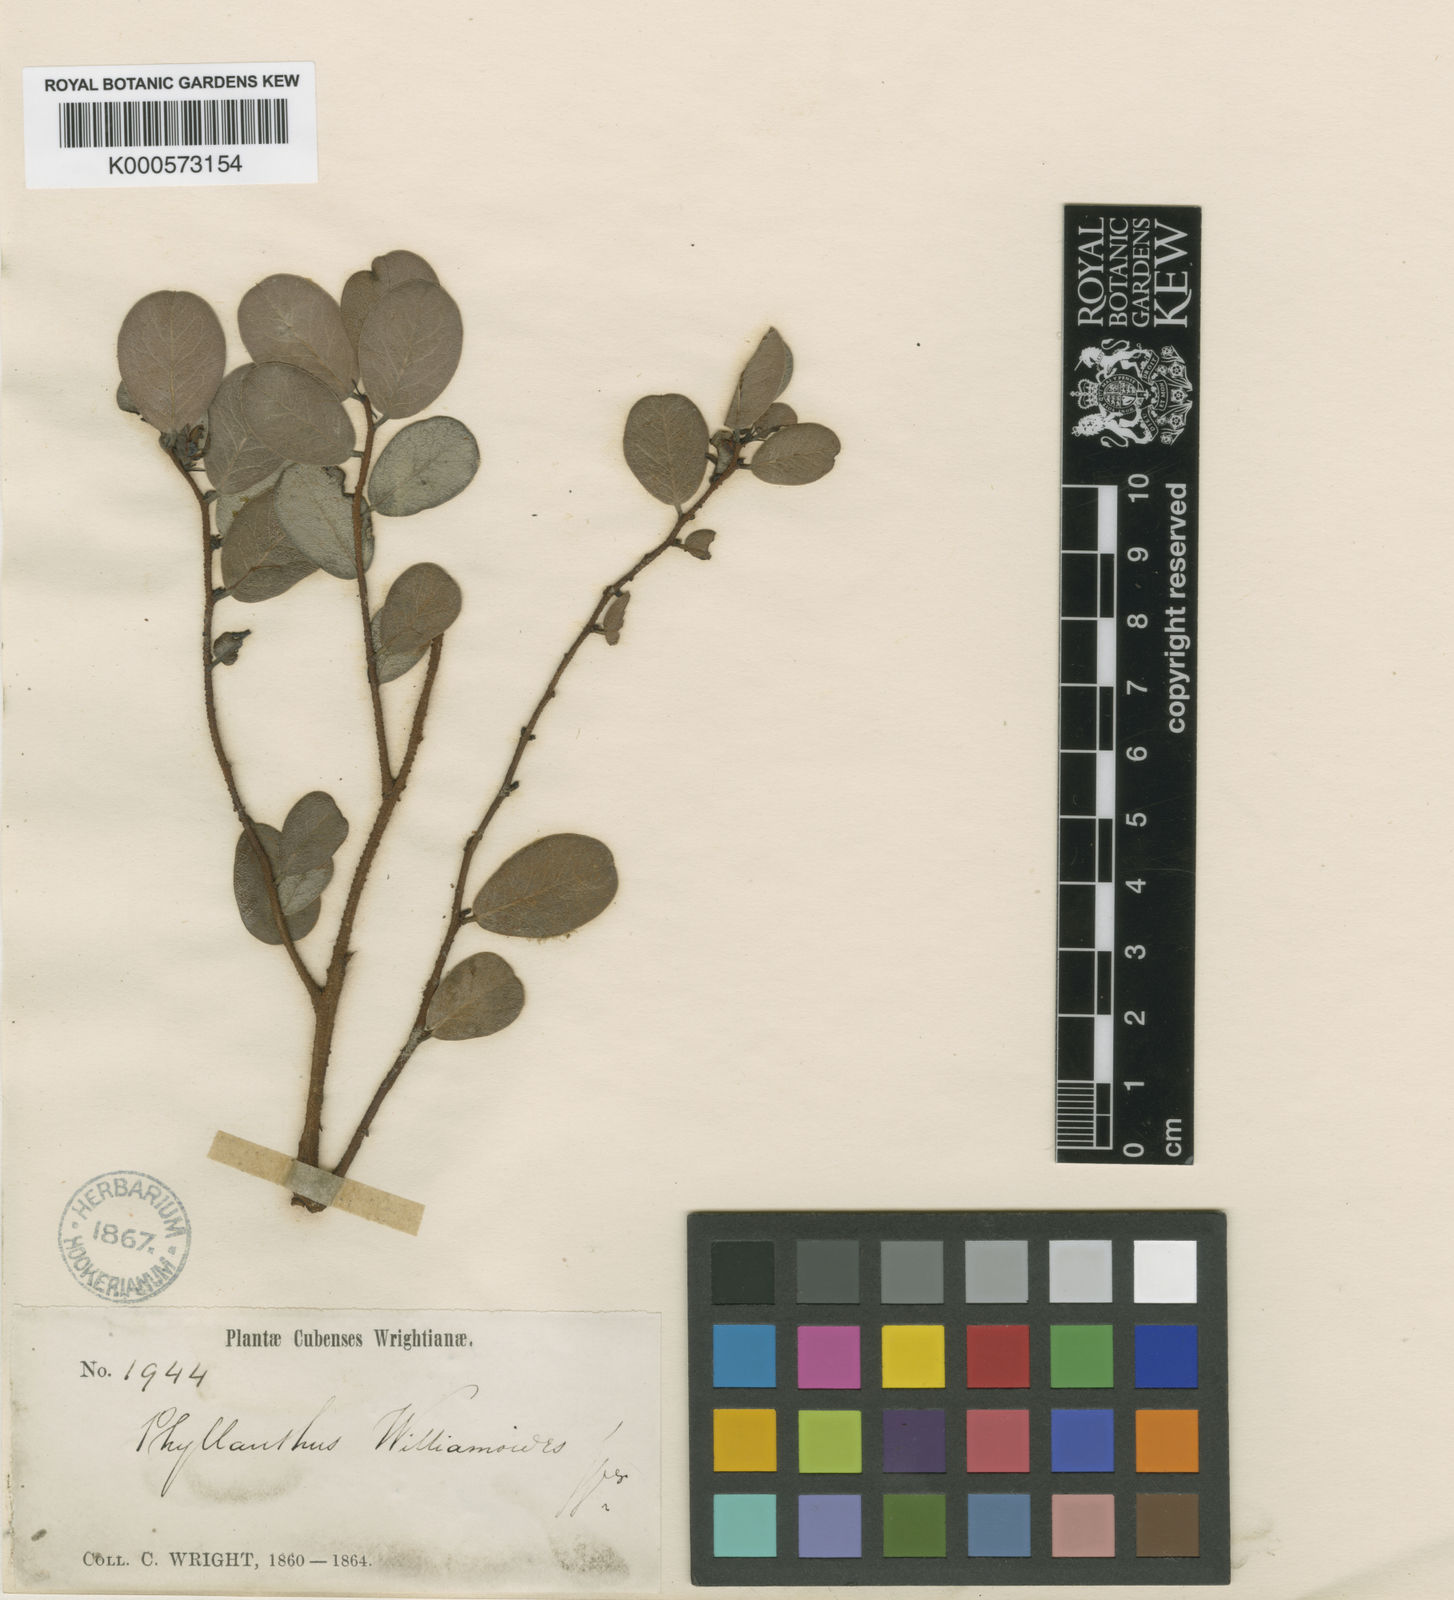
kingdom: Plantae
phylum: Tracheophyta
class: Magnoliopsida
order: Malpighiales
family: Phyllanthaceae
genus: Phyllanthus
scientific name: Phyllanthus williamioides
